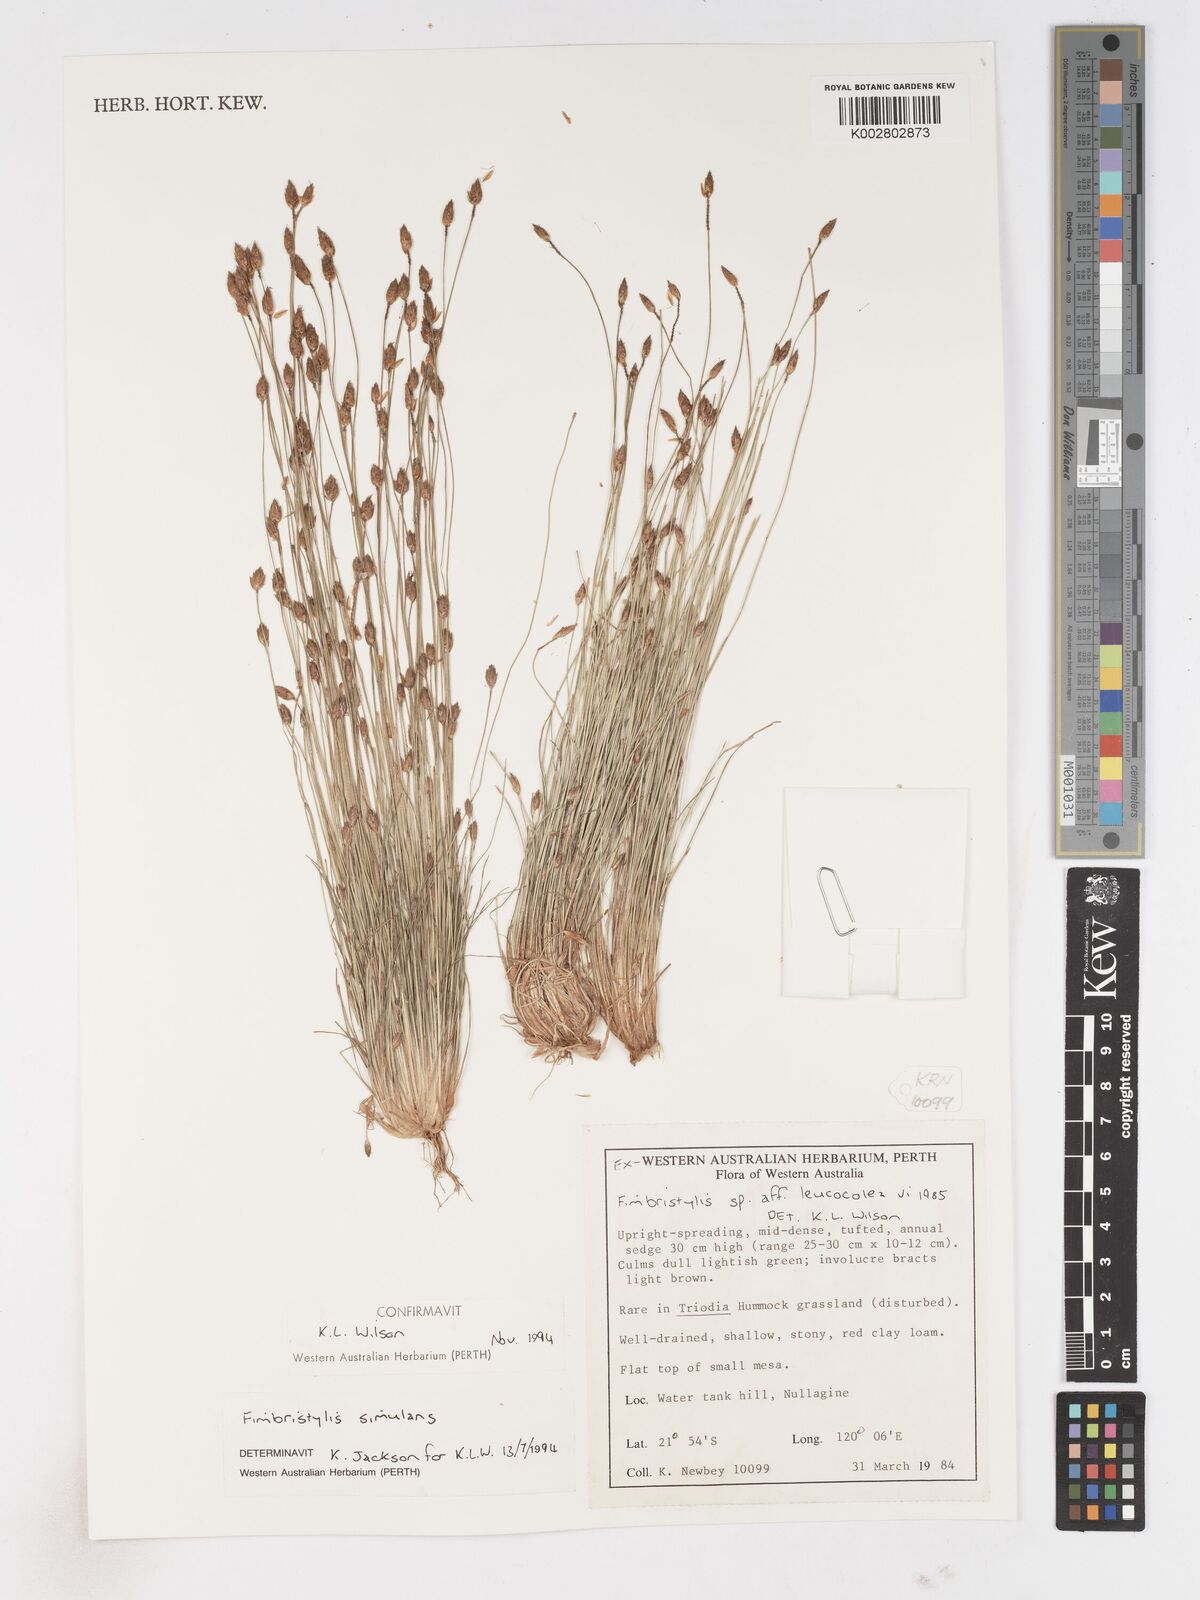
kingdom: Plantae
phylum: Tracheophyta
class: Liliopsida
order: Poales
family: Cyperaceae
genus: Fimbristylis
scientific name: Fimbristylis simulans
